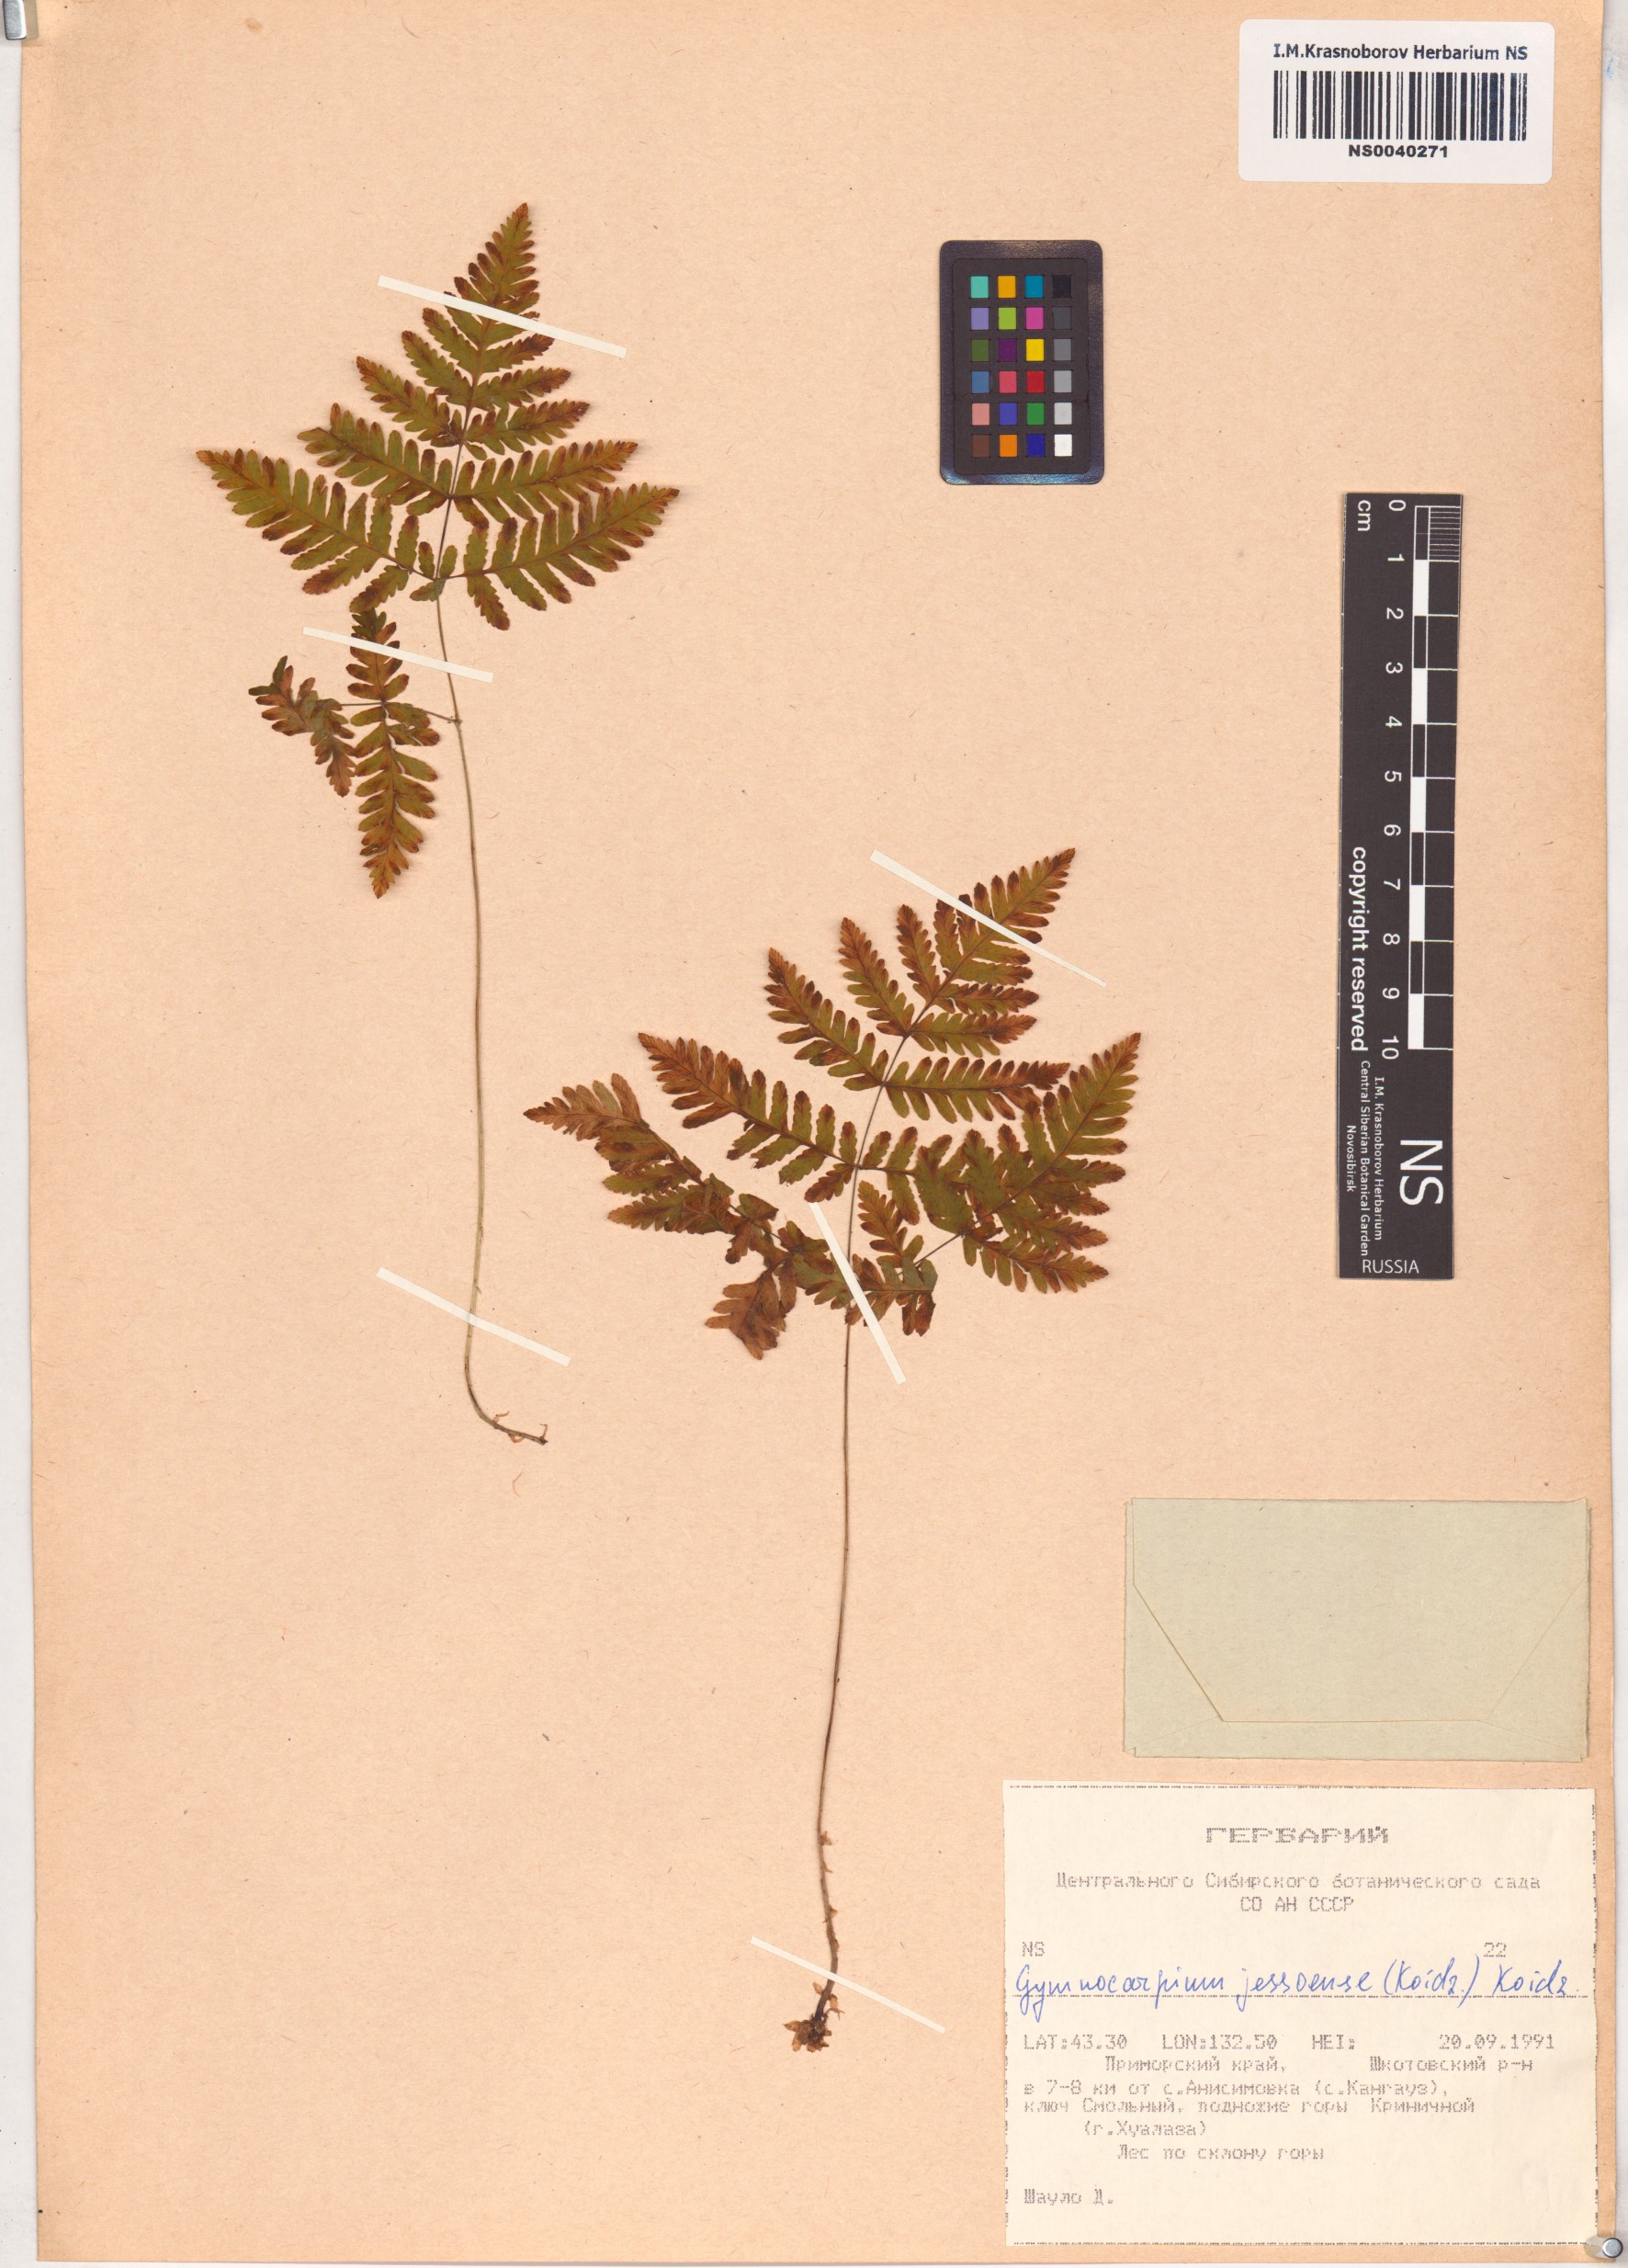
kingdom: Plantae
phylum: Tracheophyta
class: Polypodiopsida
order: Polypodiales
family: Cystopteridaceae
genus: Gymnocarpium
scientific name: Gymnocarpium jessoense
